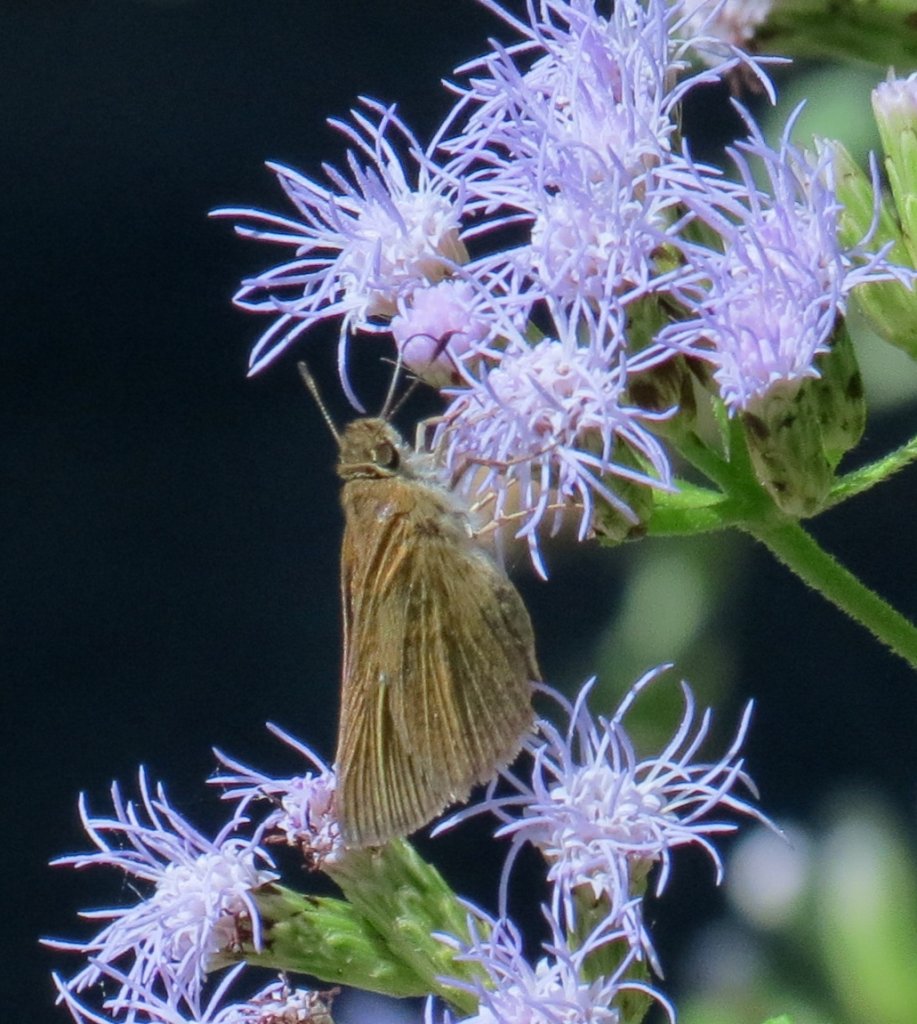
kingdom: Animalia
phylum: Arthropoda
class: Insecta
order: Lepidoptera
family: Hesperiidae
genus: Nastra
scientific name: Nastra julia
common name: Julia's Skipper
